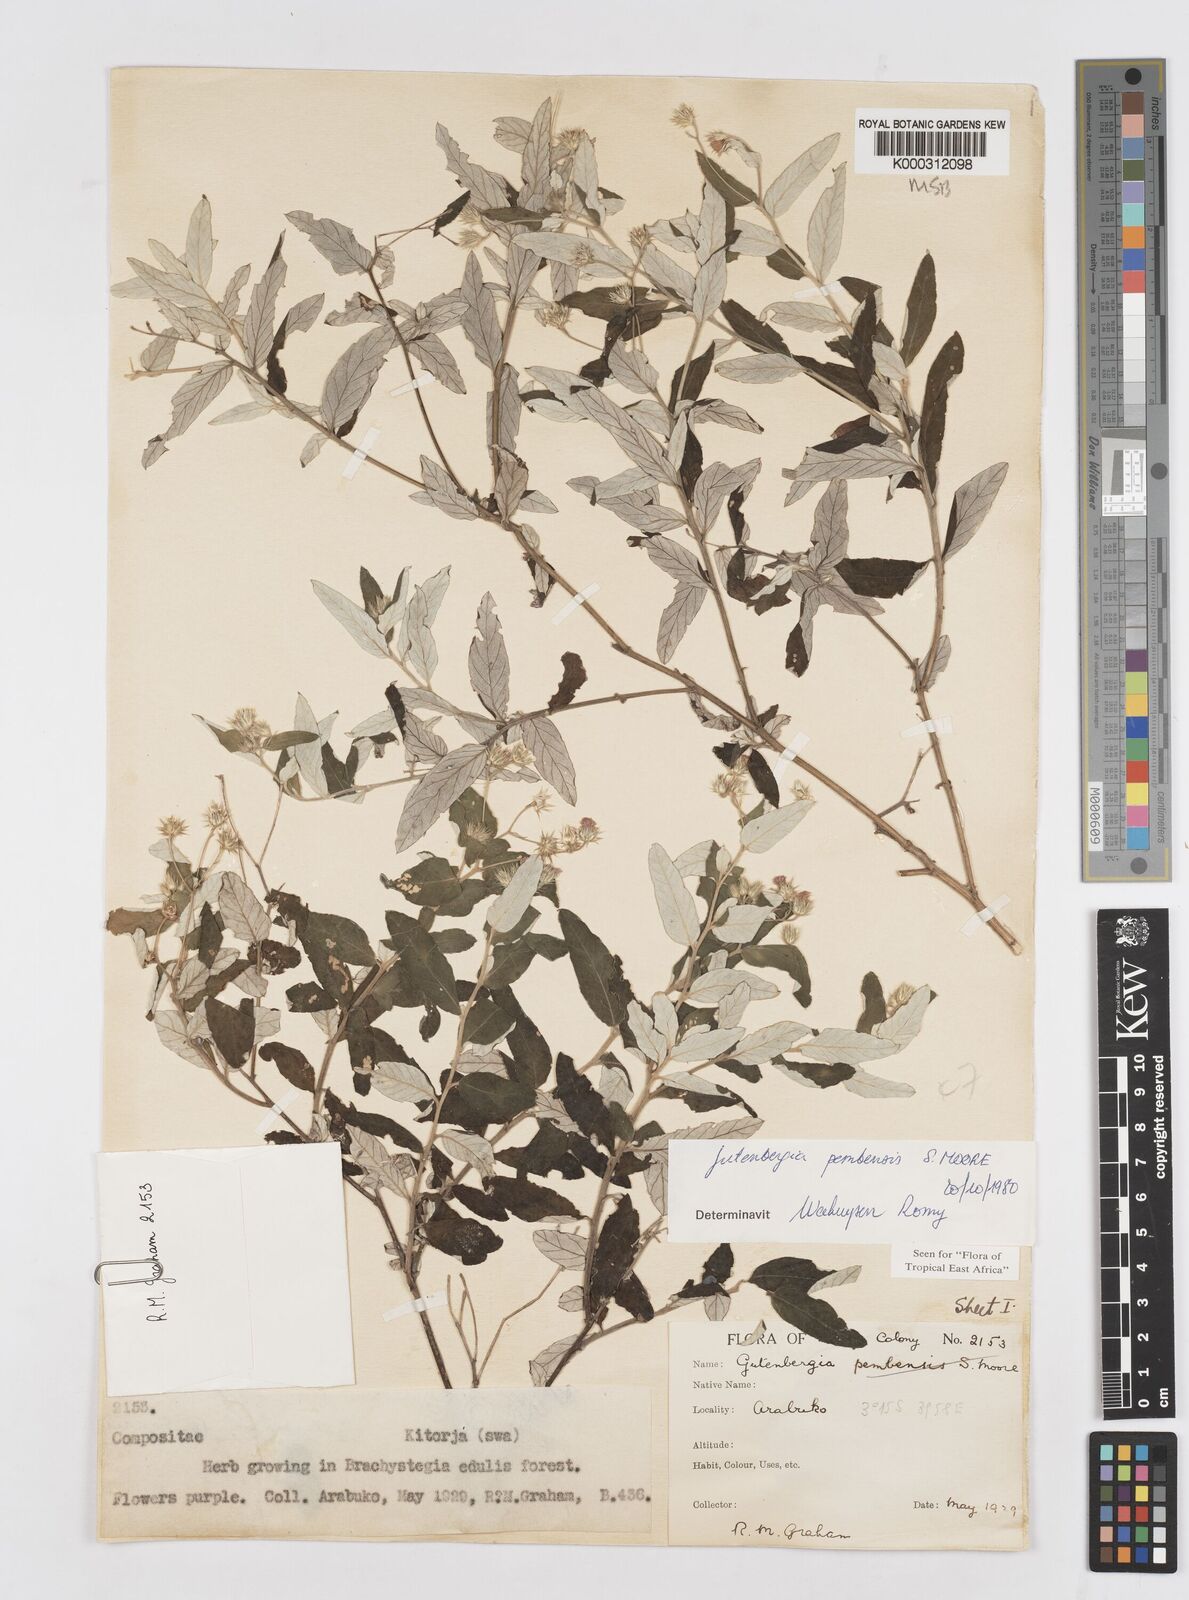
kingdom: Plantae
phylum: Tracheophyta
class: Magnoliopsida
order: Asterales
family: Asteraceae
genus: Gutenbergia
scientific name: Gutenbergia pembensis
